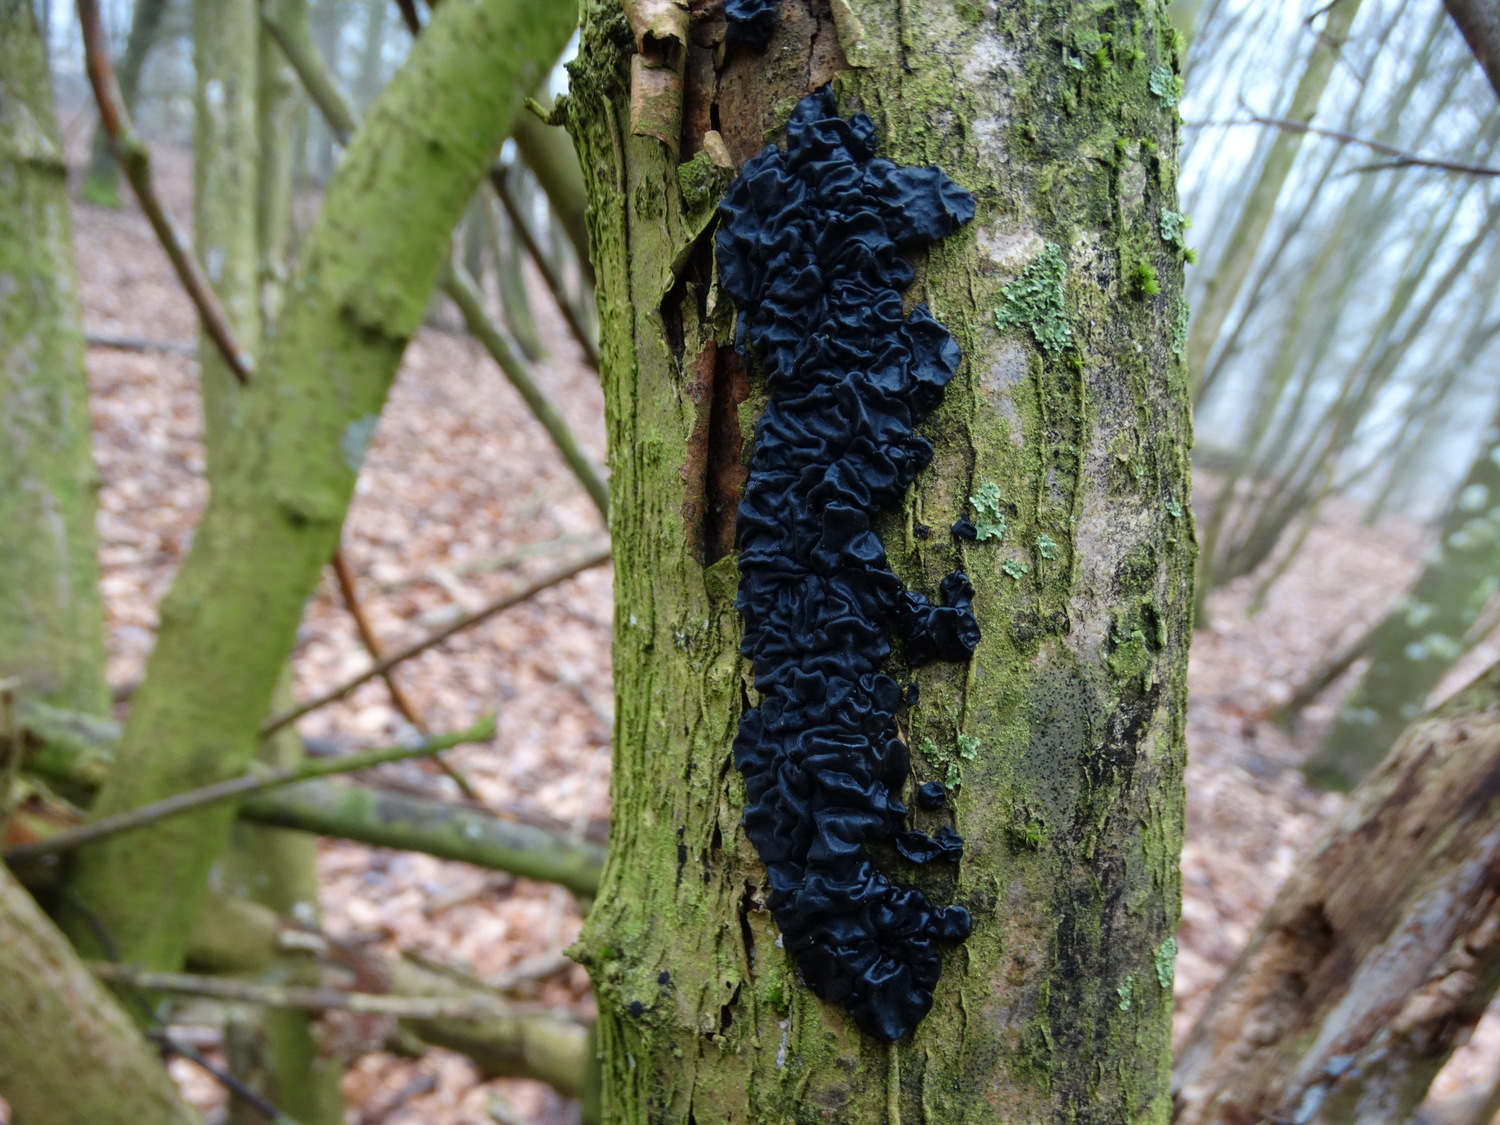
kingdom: Fungi
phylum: Basidiomycota
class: Agaricomycetes
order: Auriculariales
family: Auriculariaceae
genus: Exidia
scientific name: Exidia nigricans
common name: almindelig bævretop
